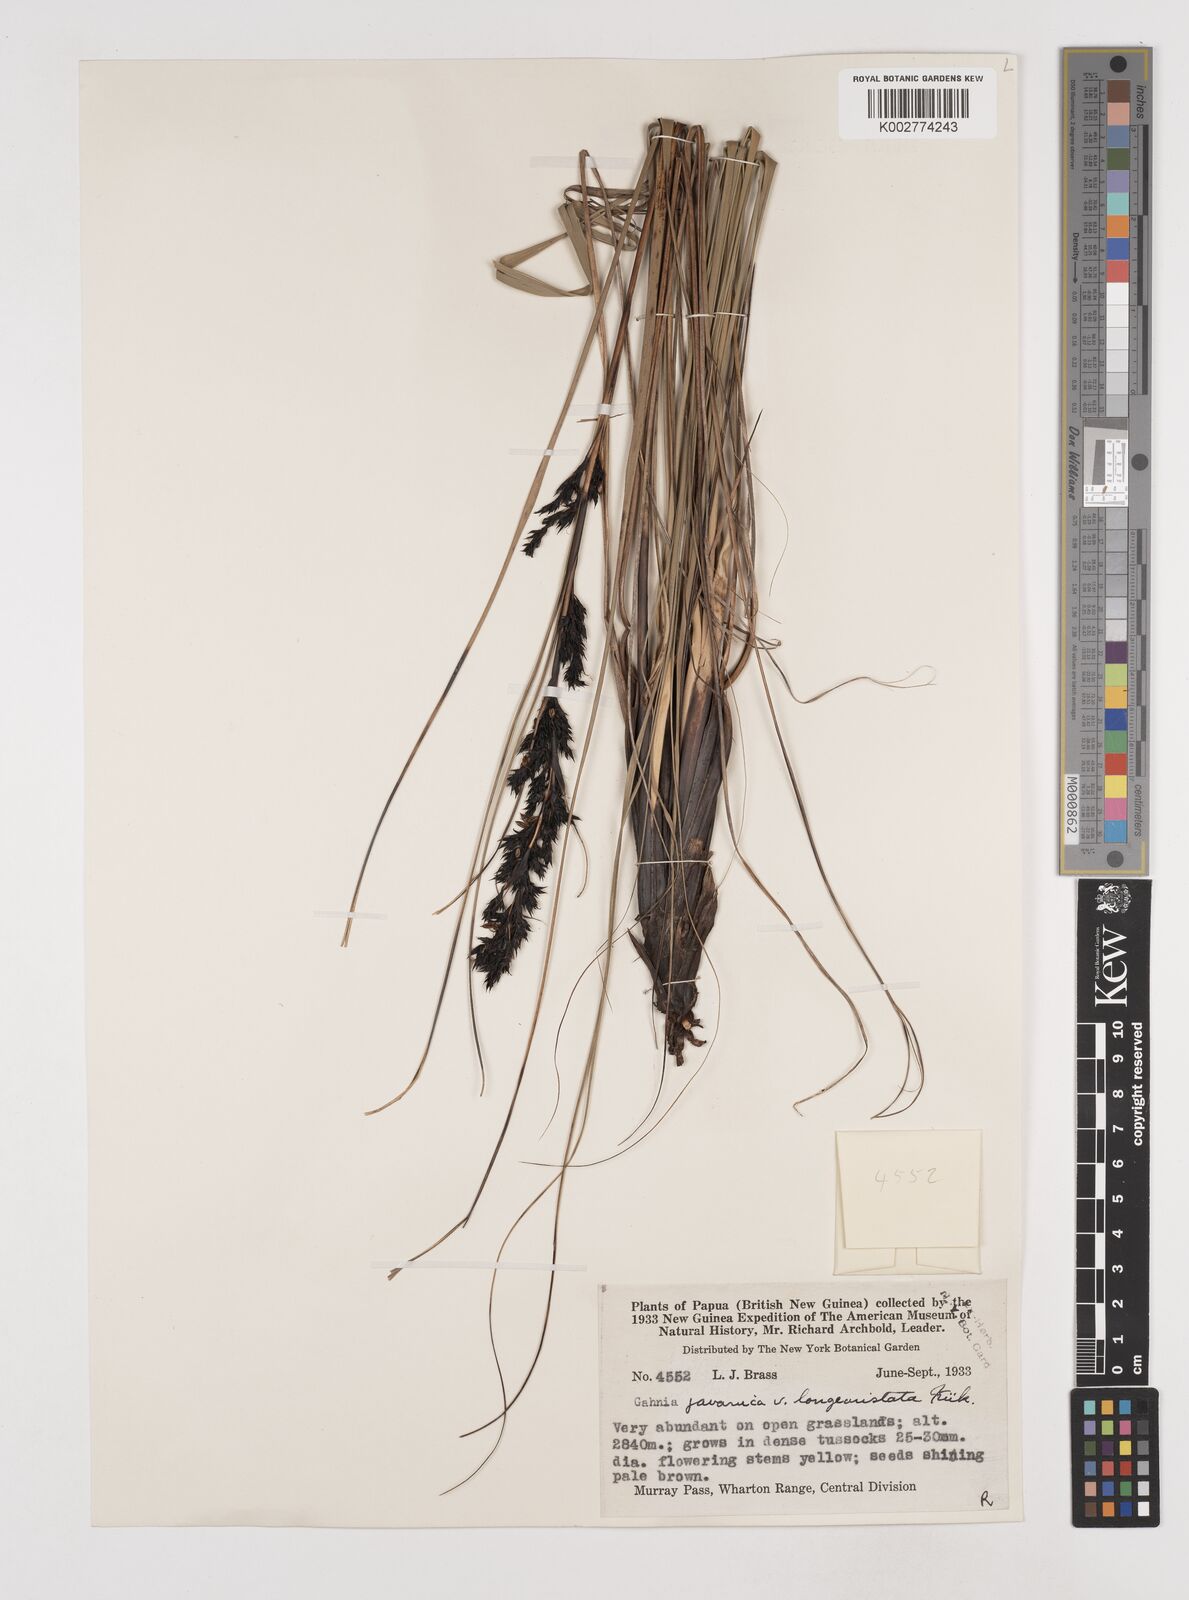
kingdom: Plantae
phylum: Tracheophyta
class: Liliopsida
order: Poales
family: Cyperaceae
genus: Gahnia
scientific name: Gahnia javanica
